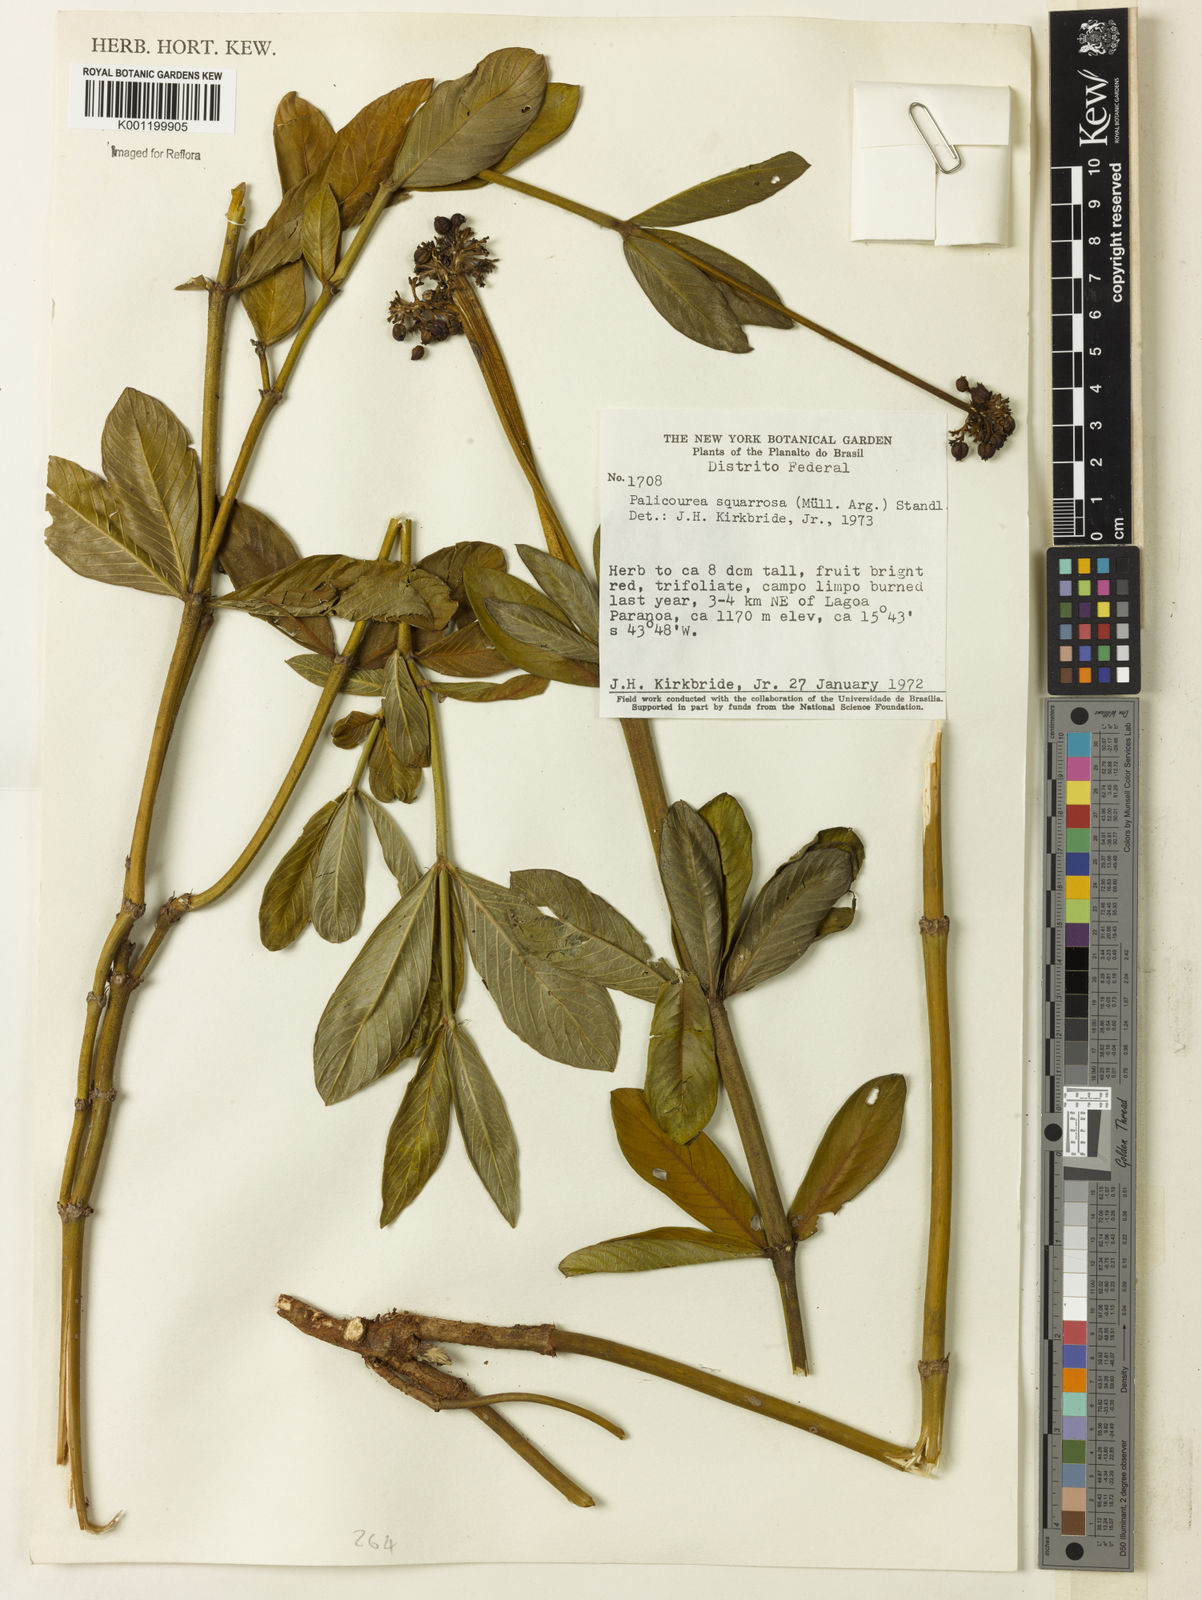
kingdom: Plantae
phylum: Tracheophyta
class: Magnoliopsida
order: Gentianales
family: Rubiaceae
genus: Palicourea
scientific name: Palicourea
